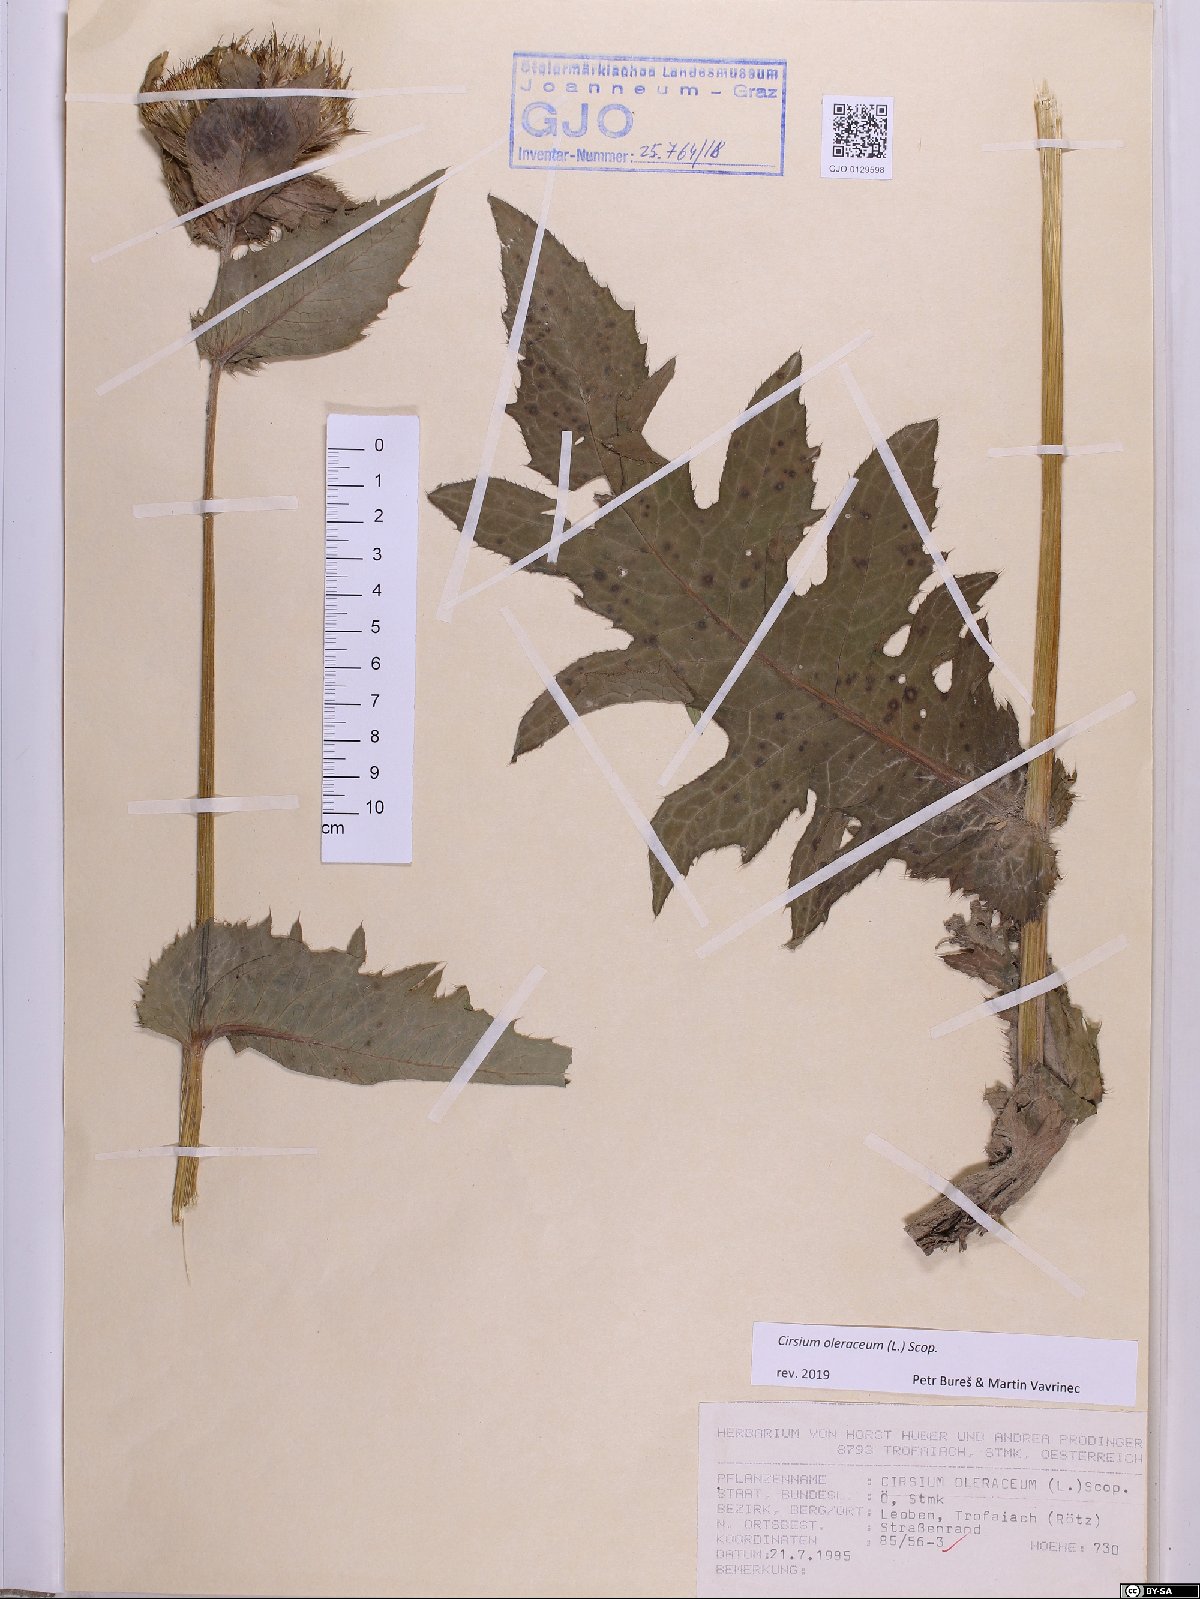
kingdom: Plantae
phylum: Tracheophyta
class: Magnoliopsida
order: Asterales
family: Asteraceae
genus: Cirsium
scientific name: Cirsium oleraceum
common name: Cabbage thistle
